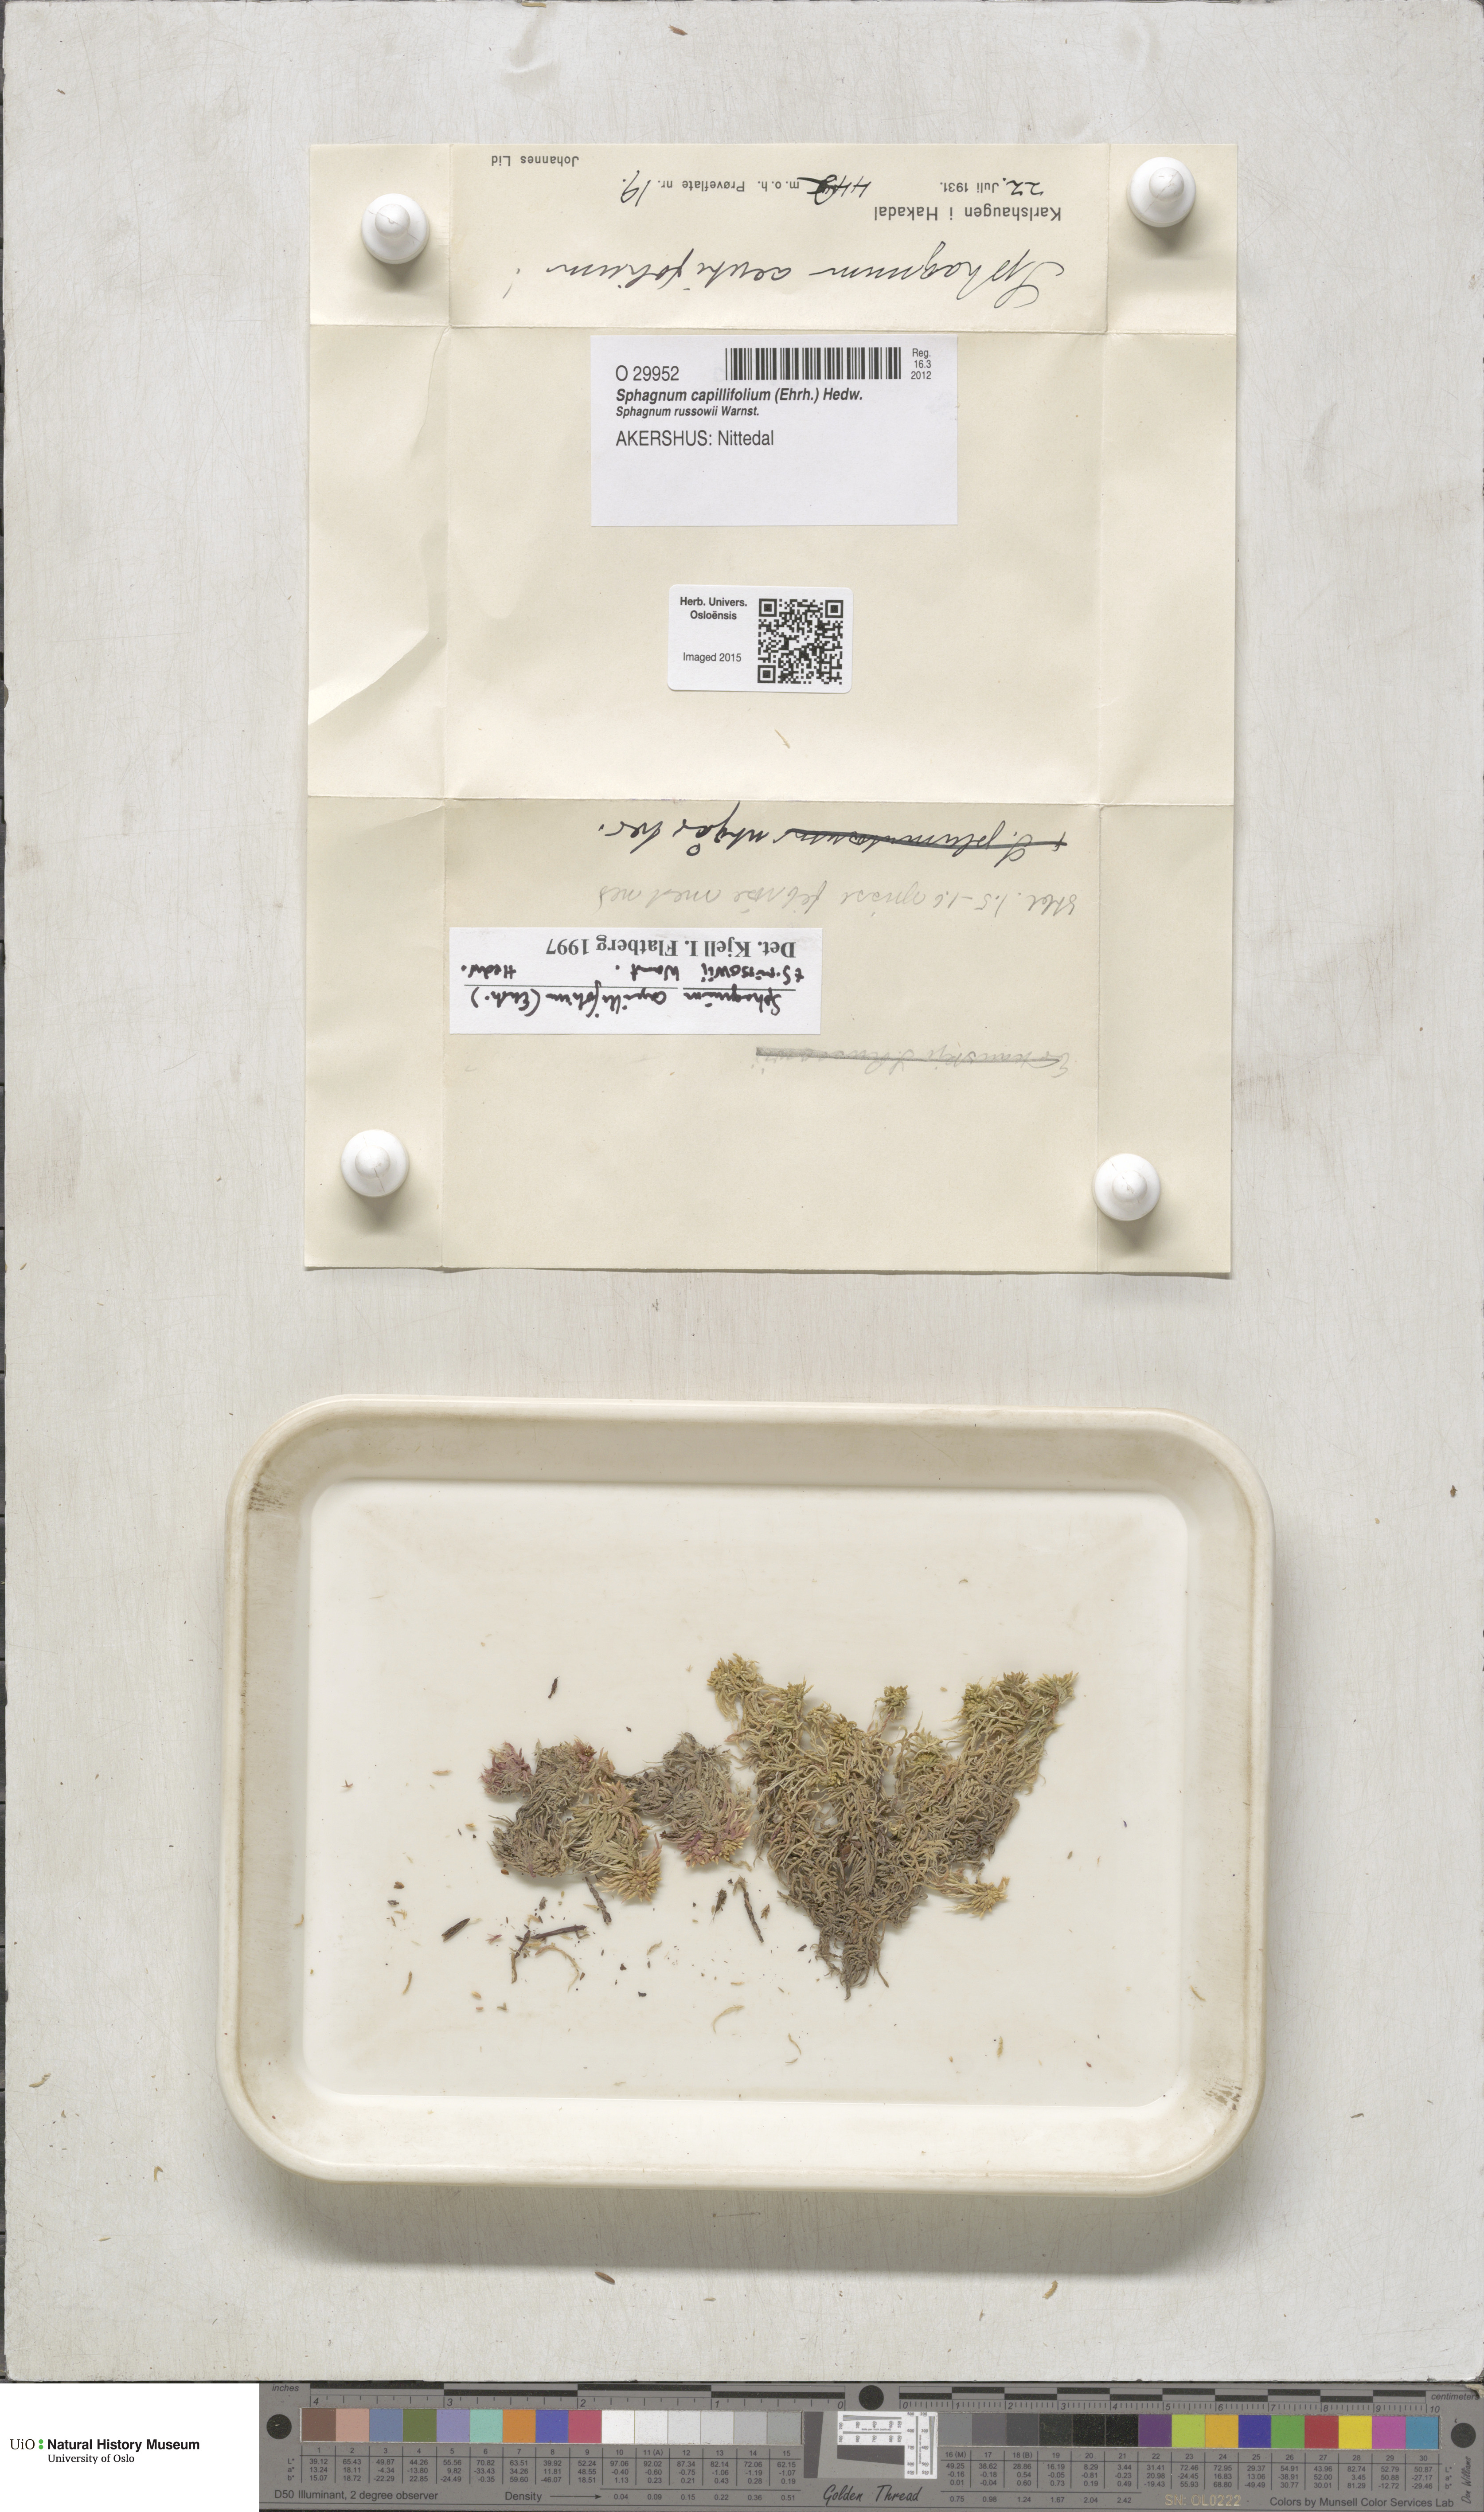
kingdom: Plantae
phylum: Bryophyta
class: Sphagnopsida
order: Sphagnales
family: Sphagnaceae
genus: Sphagnum
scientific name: Sphagnum capillifolium
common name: Small red peat moss
